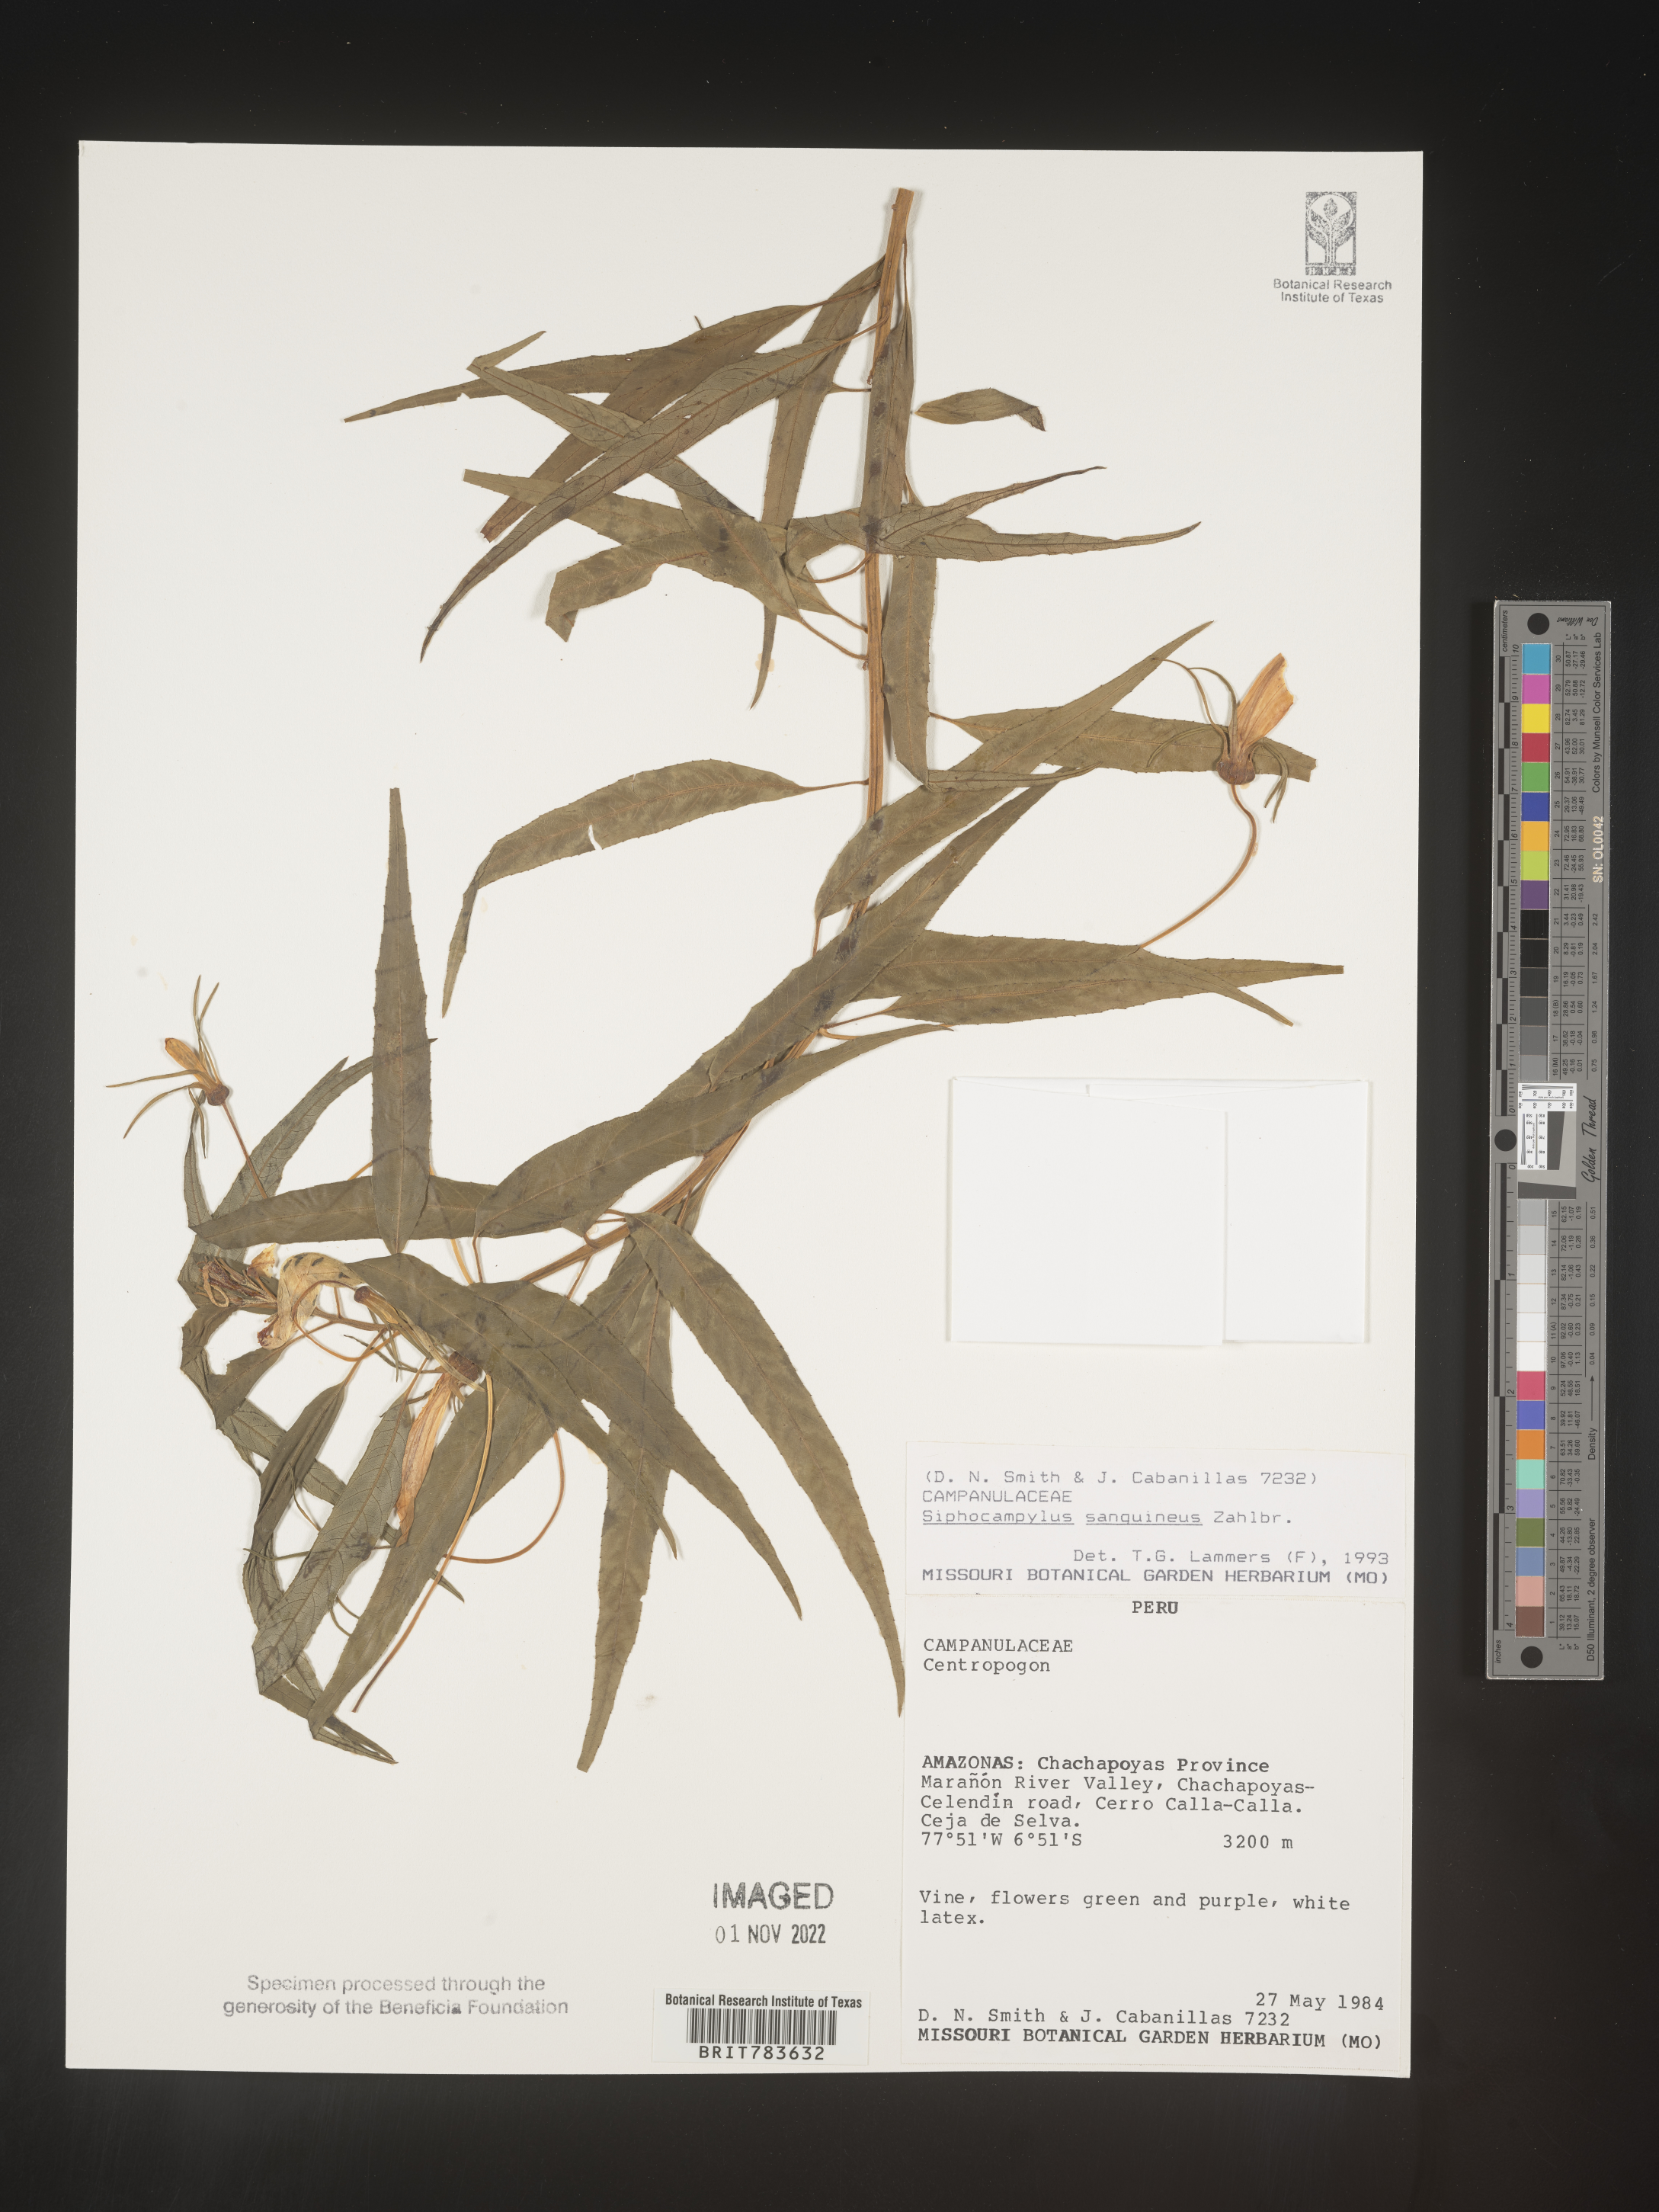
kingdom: Plantae
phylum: Tracheophyta
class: Magnoliopsida
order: Asterales
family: Campanulaceae
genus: Siphocampylus
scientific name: Siphocampylus
